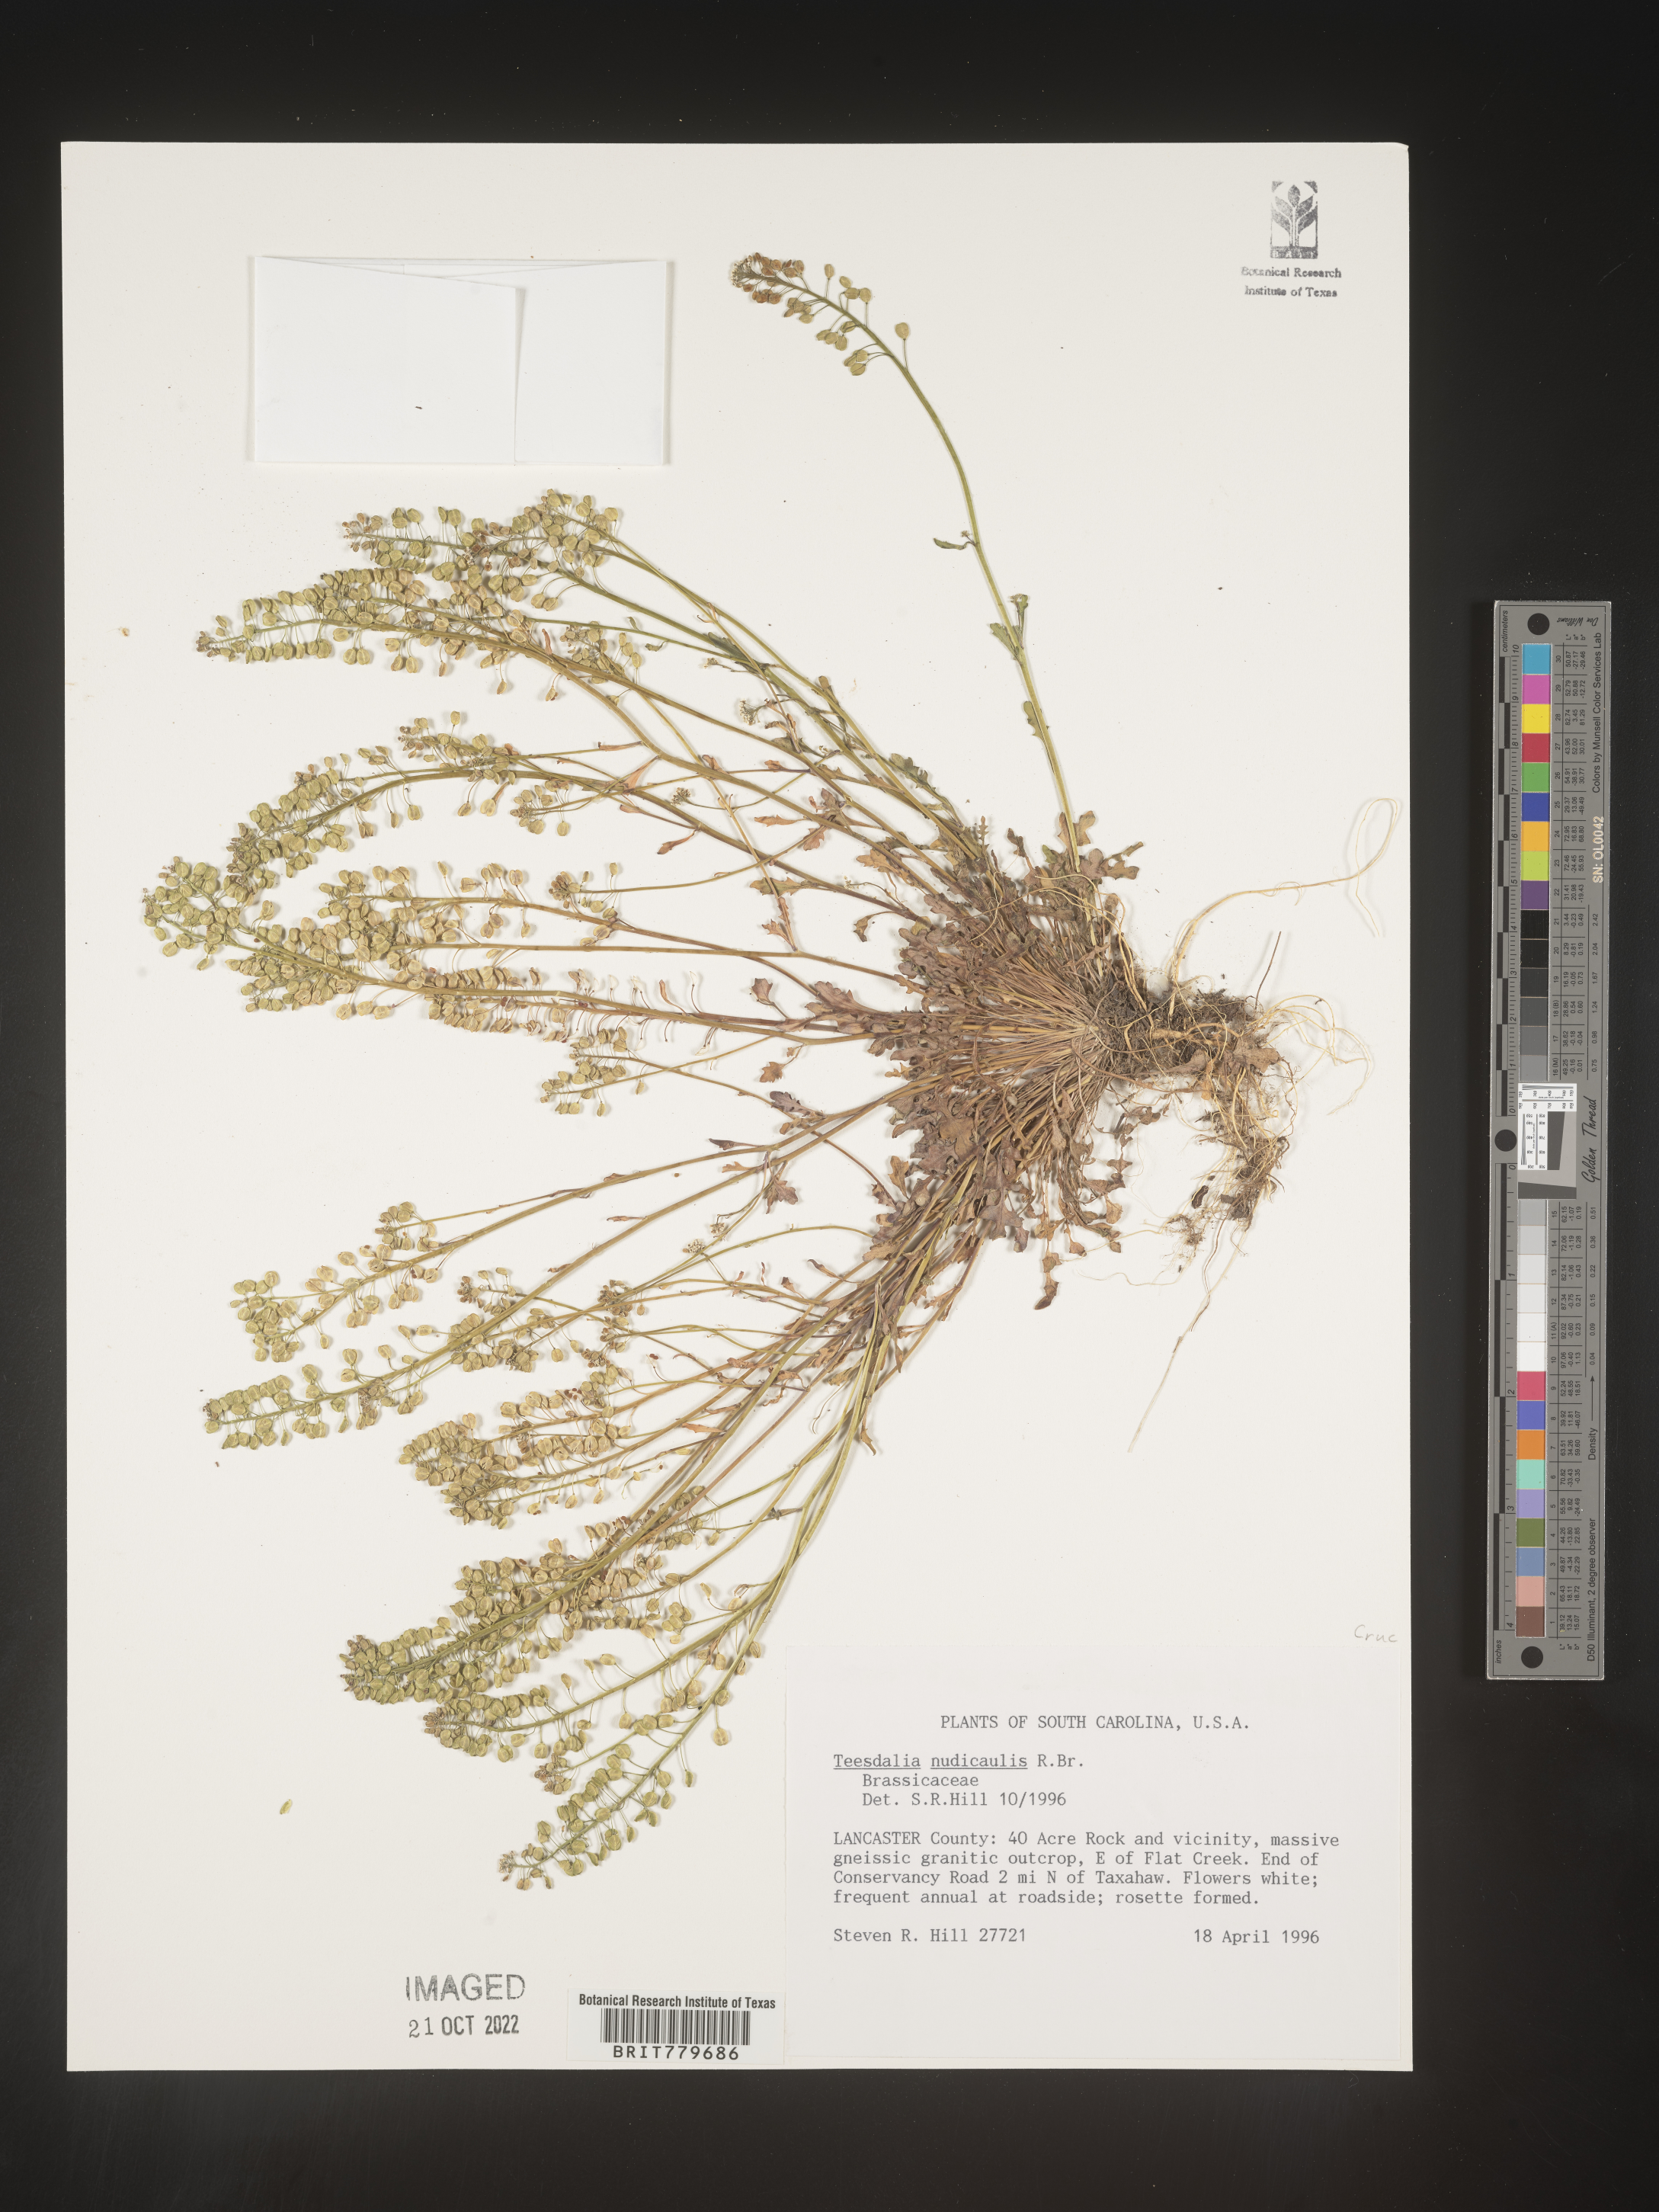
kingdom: Plantae
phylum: Tracheophyta
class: Magnoliopsida
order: Brassicales
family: Brassicaceae
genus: Teesdalia
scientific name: Teesdalia
